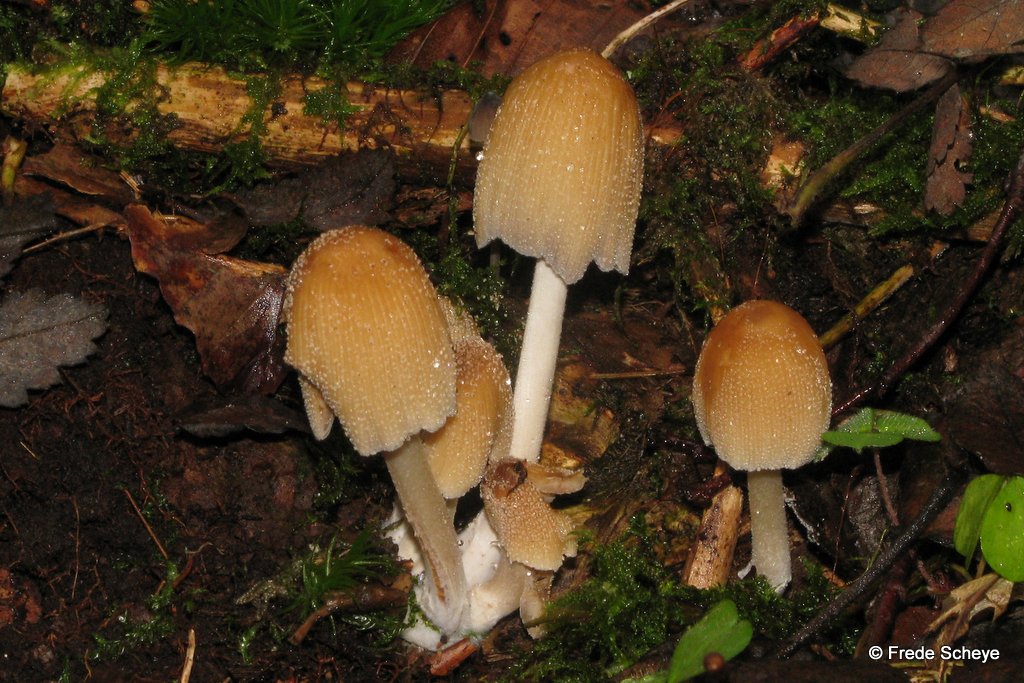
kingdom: Fungi
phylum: Basidiomycota
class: Agaricomycetes
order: Agaricales
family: Psathyrellaceae
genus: Coprinellus
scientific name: Coprinellus micaceus
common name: glimmer-blækhat
